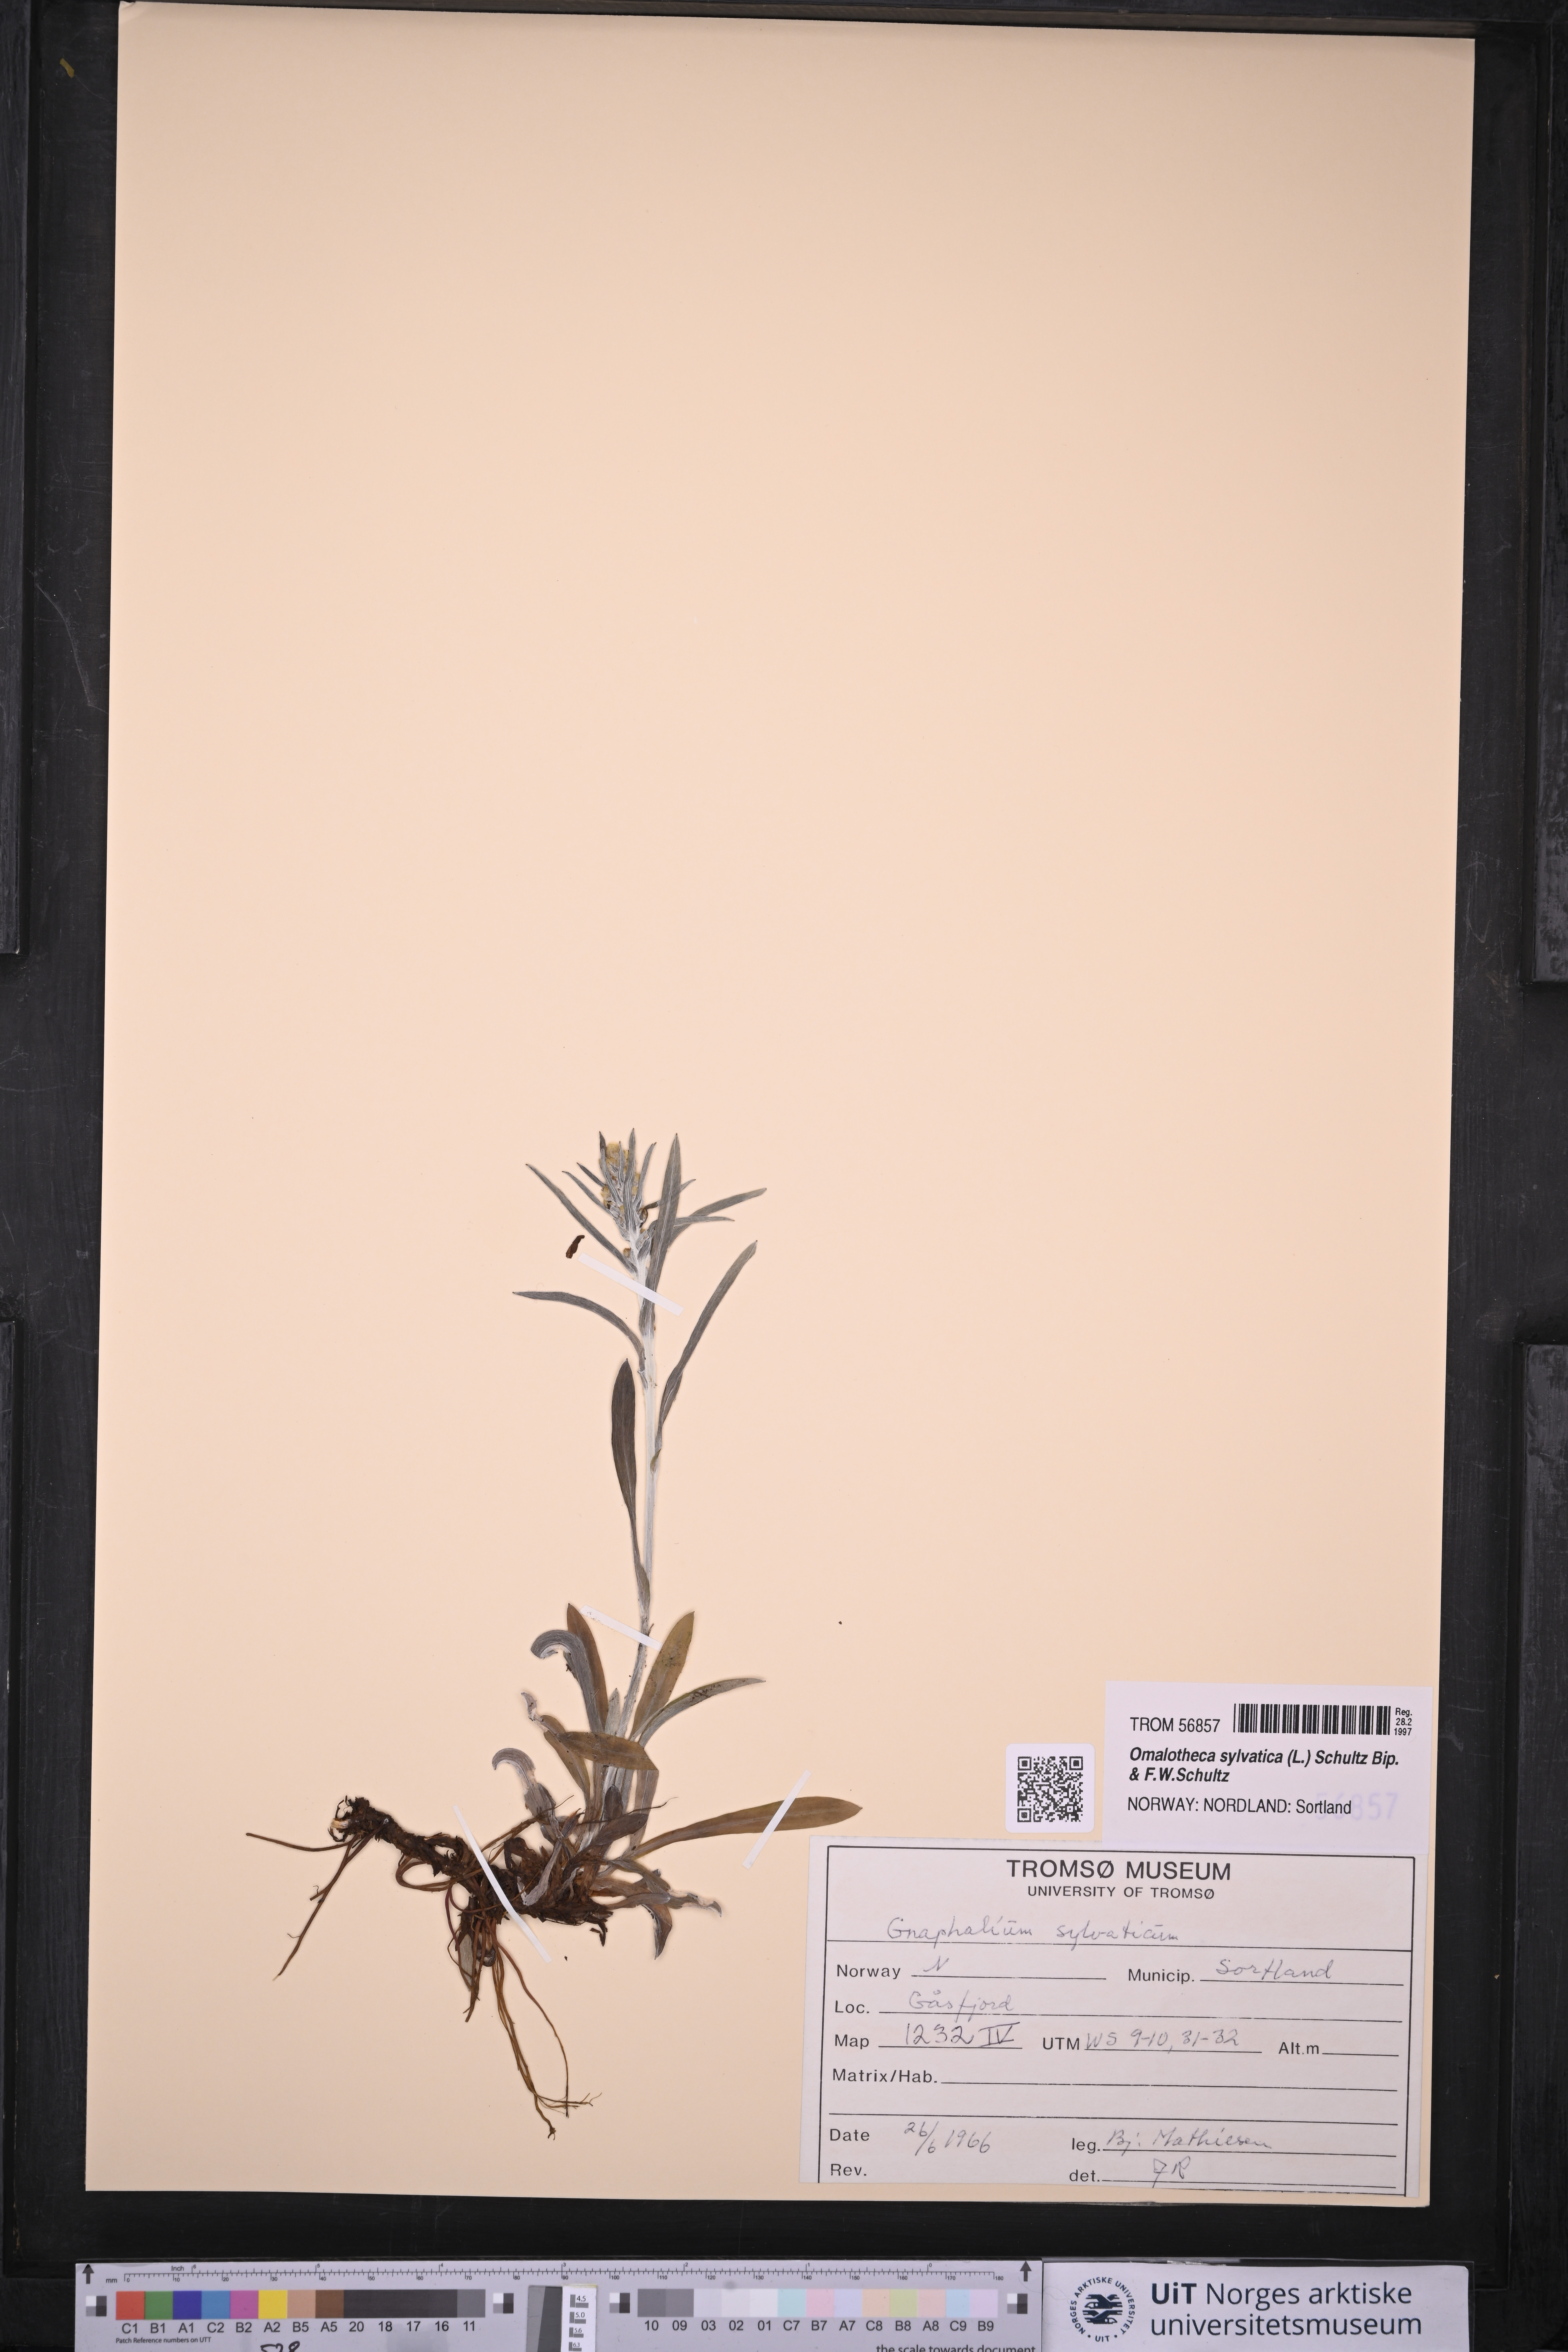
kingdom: Plantae
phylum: Tracheophyta
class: Magnoliopsida
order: Asterales
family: Asteraceae
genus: Omalotheca
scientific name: Omalotheca sylvatica
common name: Heath cudweed
